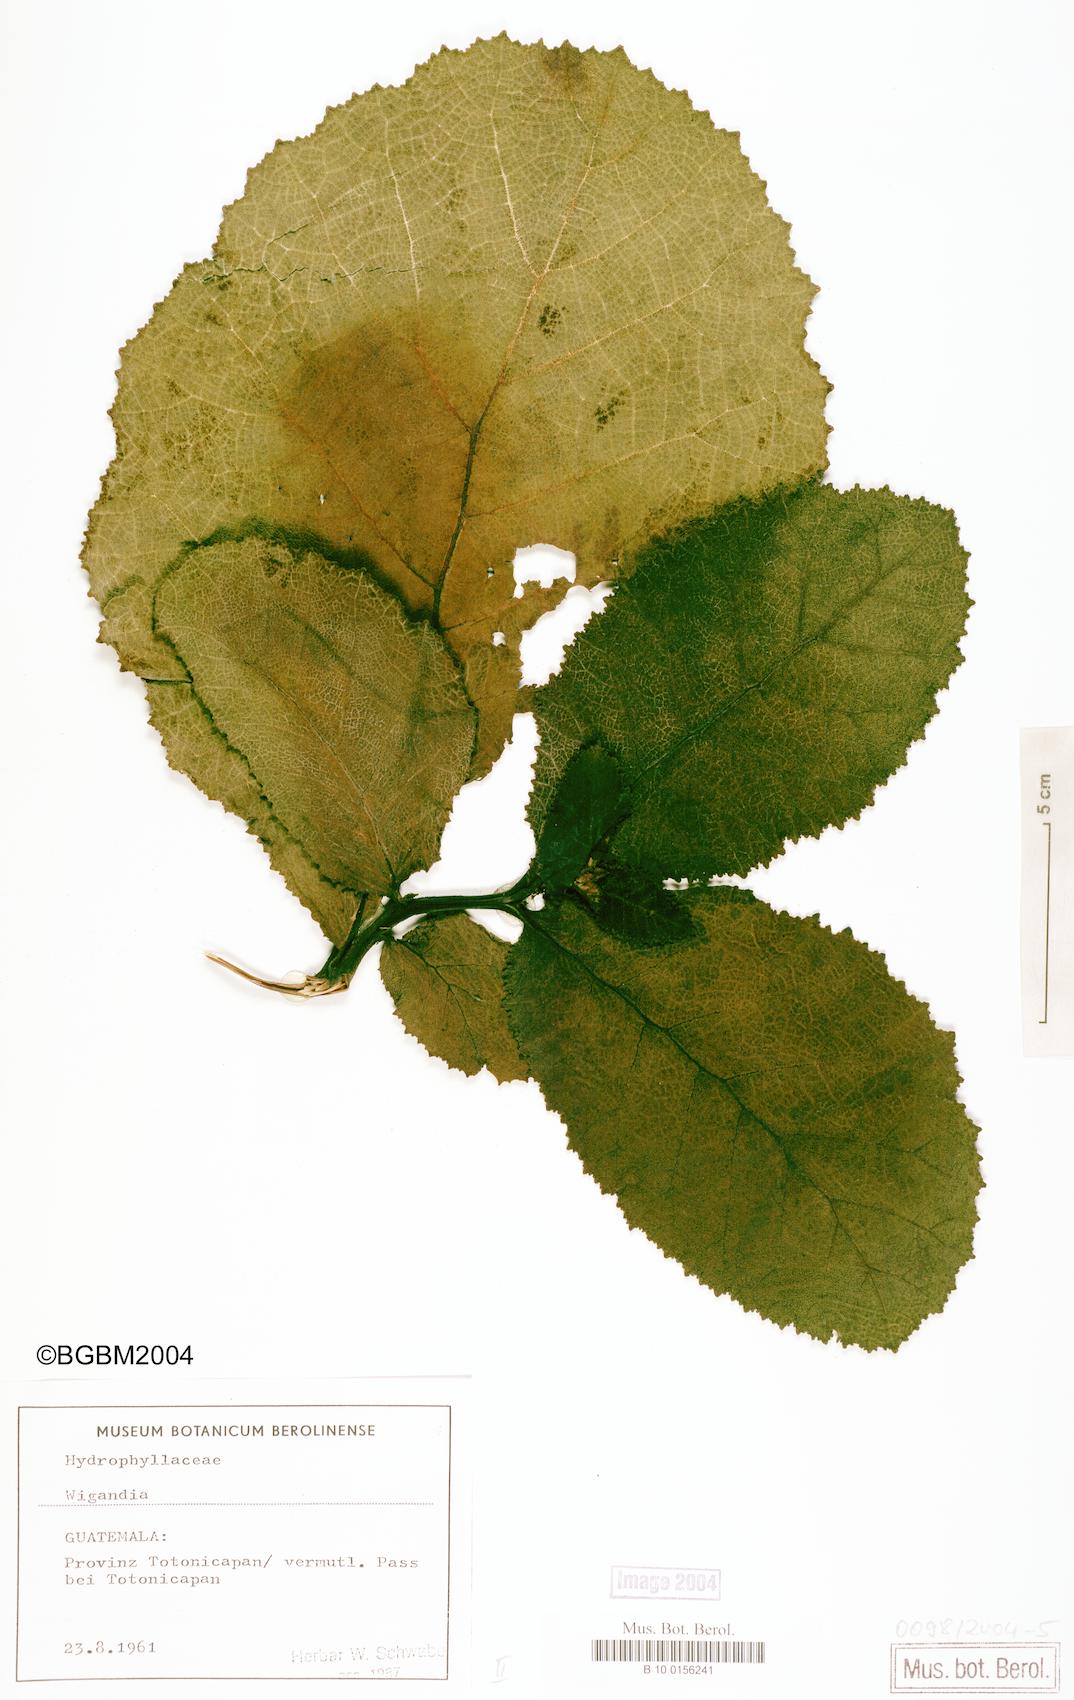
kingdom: Plantae
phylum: Tracheophyta
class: Magnoliopsida
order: Boraginales
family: Hydrophyllaceae
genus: Wiganda
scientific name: Wiganda
